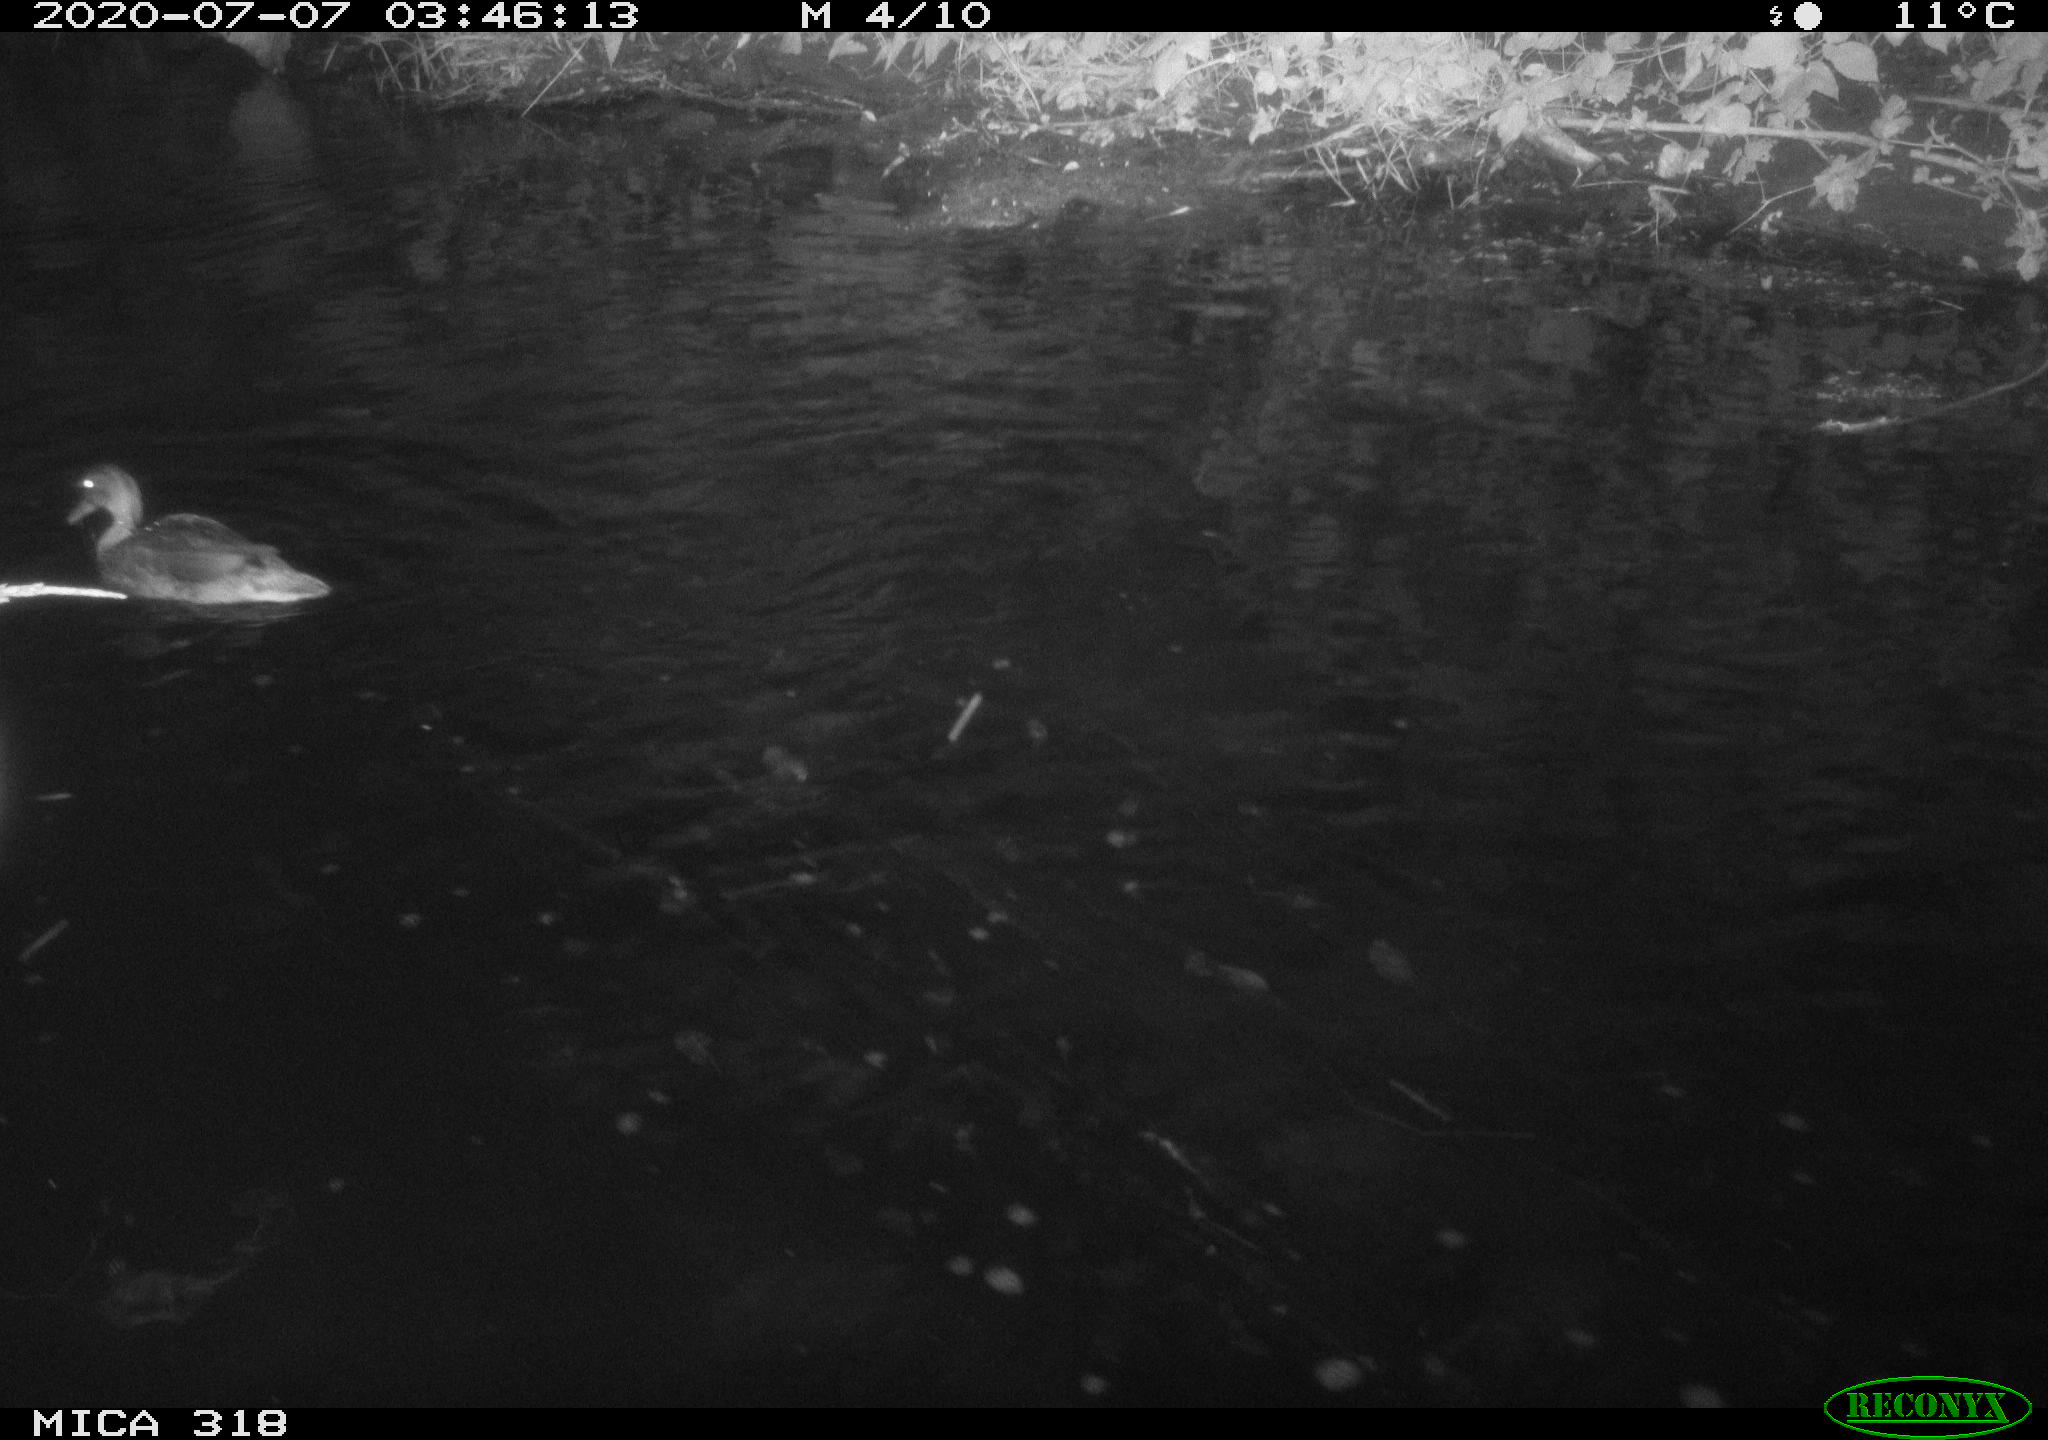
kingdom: Animalia
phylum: Chordata
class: Aves
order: Anseriformes
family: Anatidae
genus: Mareca
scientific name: Mareca strepera
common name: Gadwall
